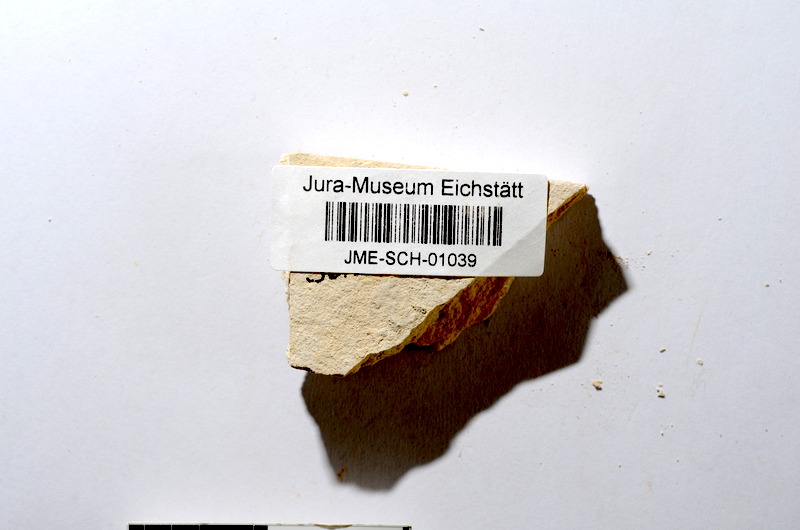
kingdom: Animalia
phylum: Chordata
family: Ascalaboidae
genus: Tharsis
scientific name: Tharsis dubius
